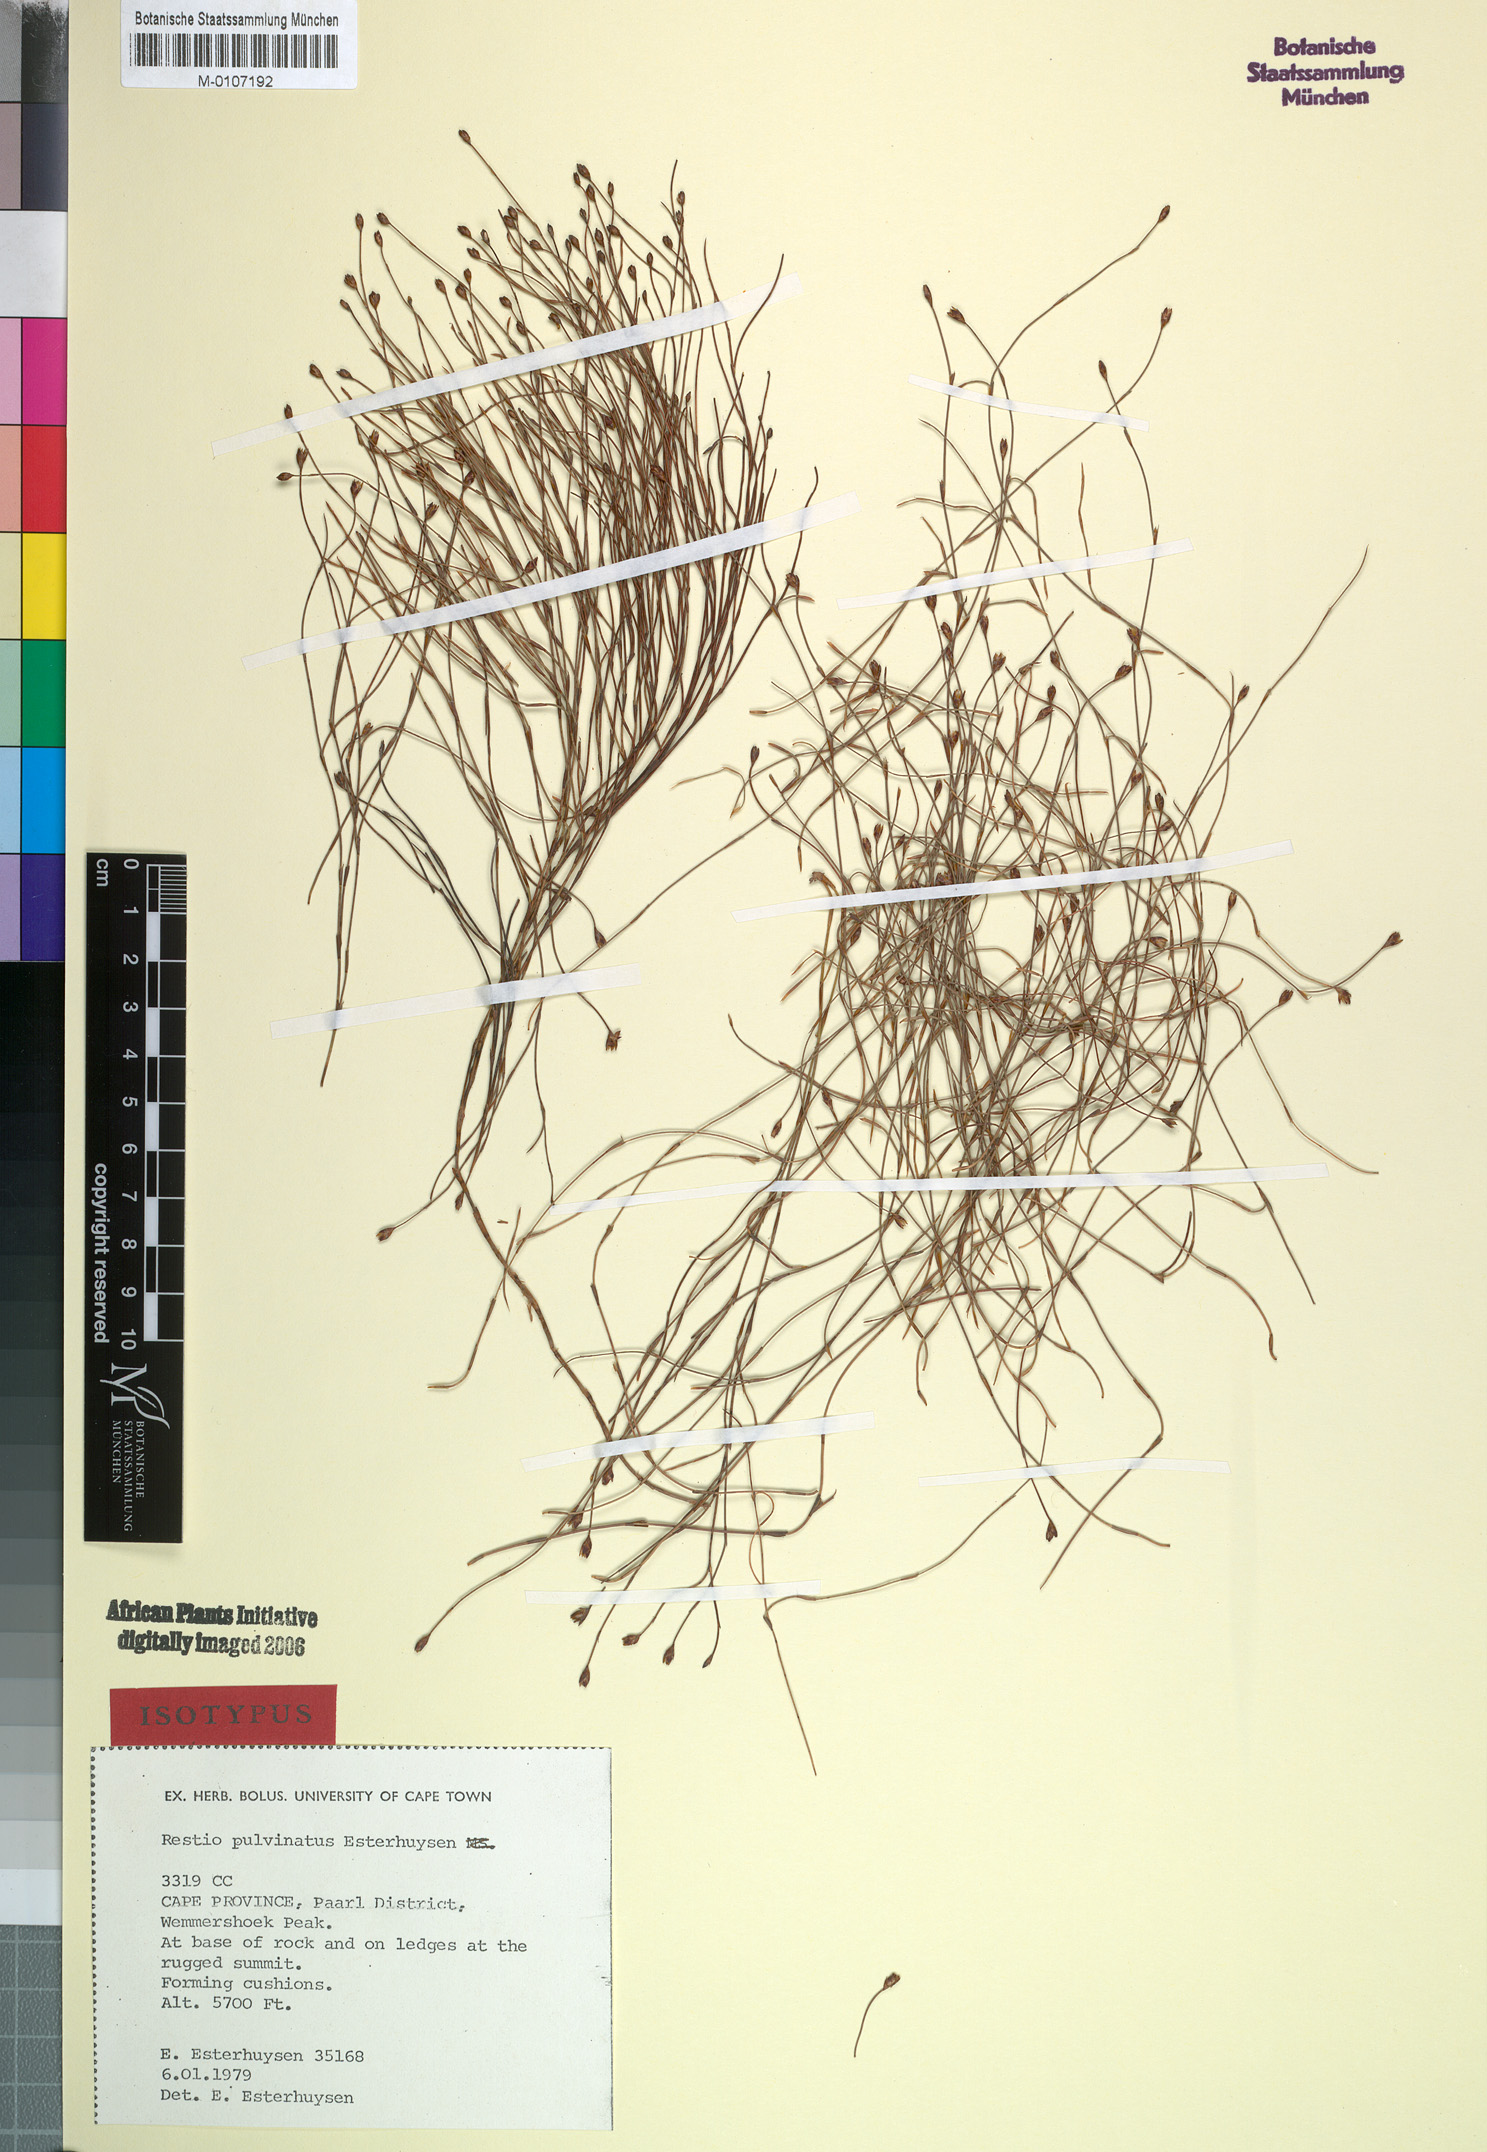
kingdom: Plantae
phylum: Tracheophyta
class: Liliopsida
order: Poales
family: Restionaceae
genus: Restio
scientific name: Restio pulvinatus
